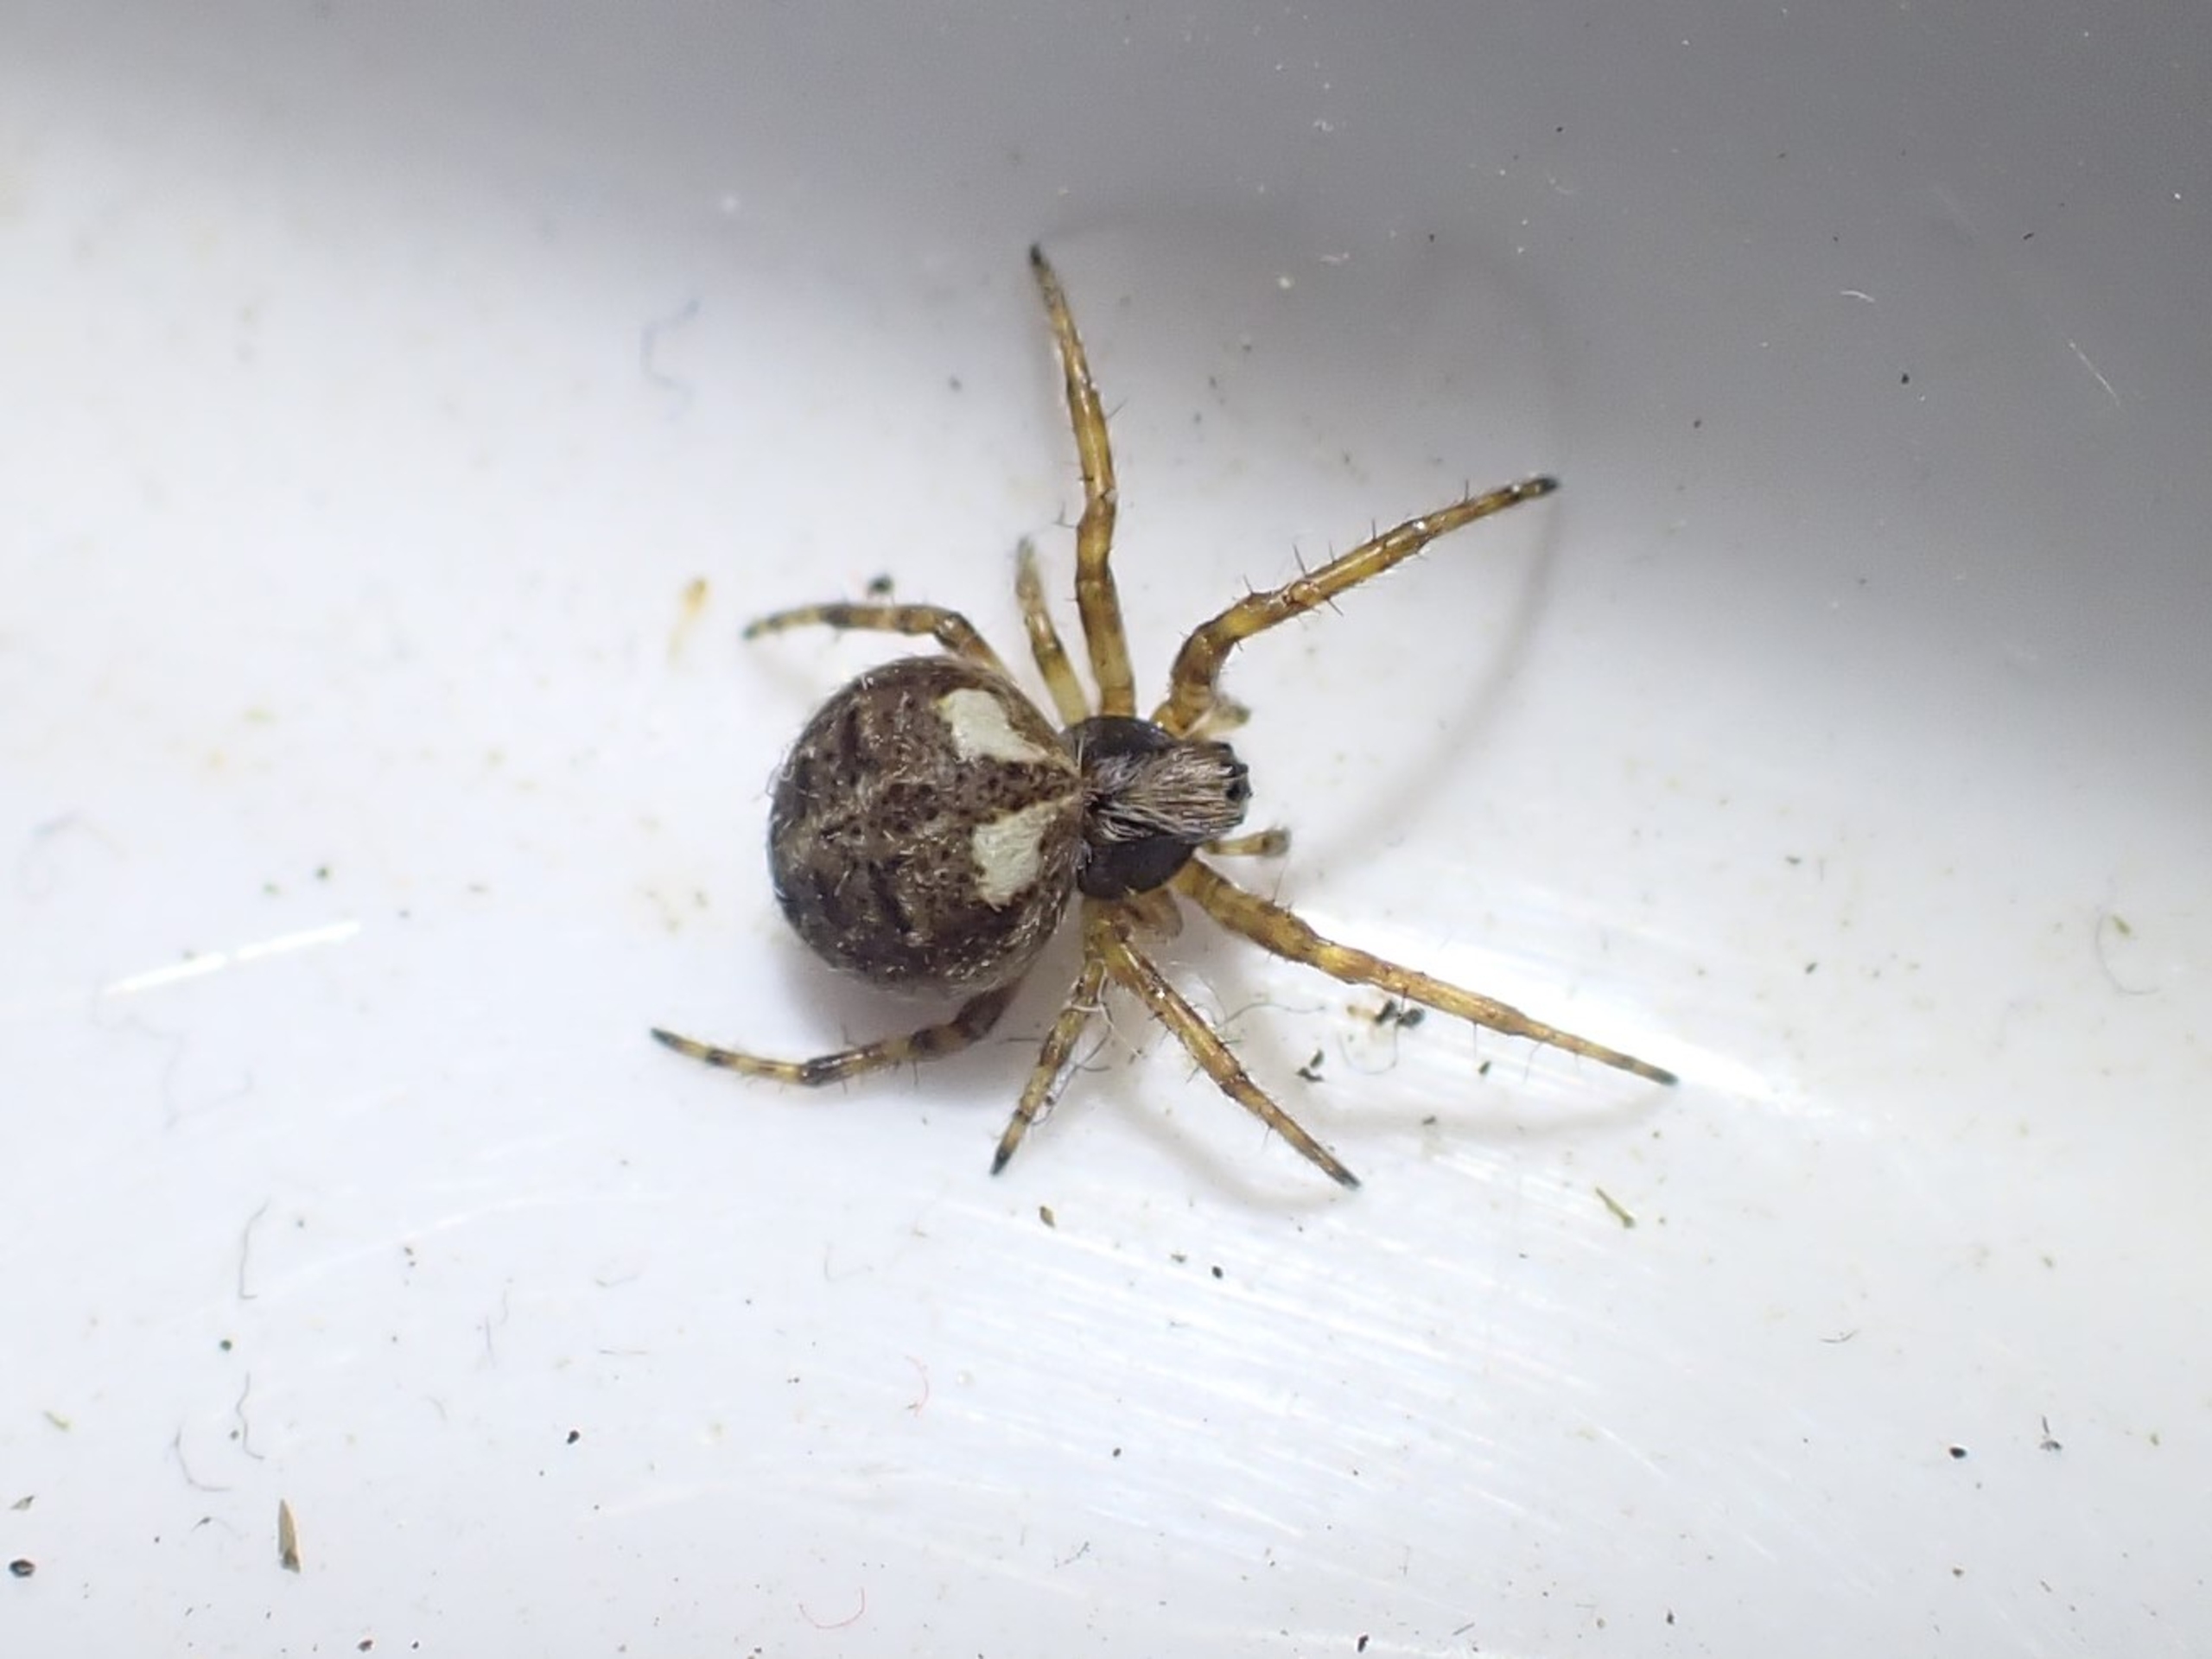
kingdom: Animalia
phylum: Arthropoda
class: Arachnida
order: Araneae
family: Araneidae
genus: Agalenatea
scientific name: Agalenatea redii
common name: Lodden hjulspinder
